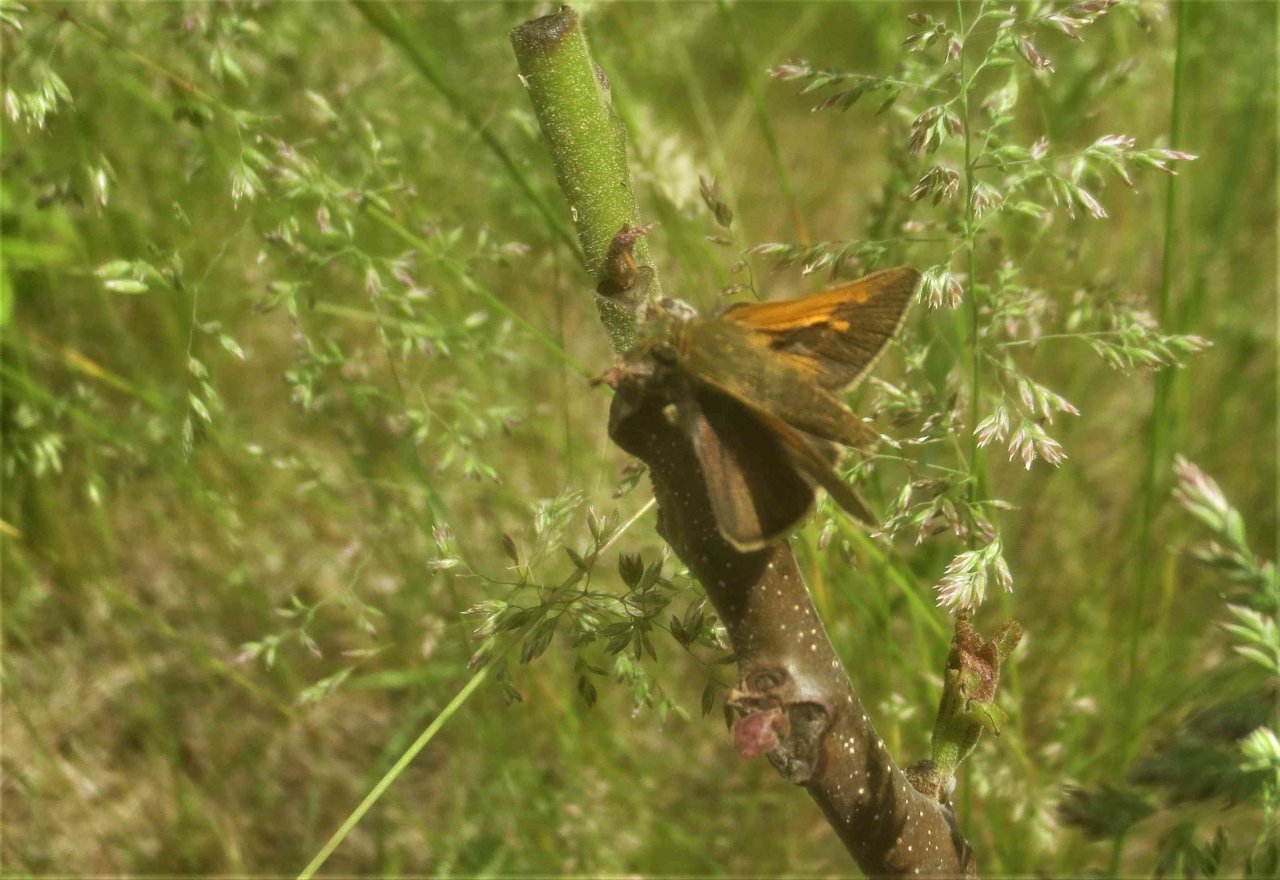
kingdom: Animalia
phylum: Arthropoda
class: Insecta
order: Lepidoptera
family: Hesperiidae
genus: Polites
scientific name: Polites themistocles
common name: Tawny-edged Skipper
